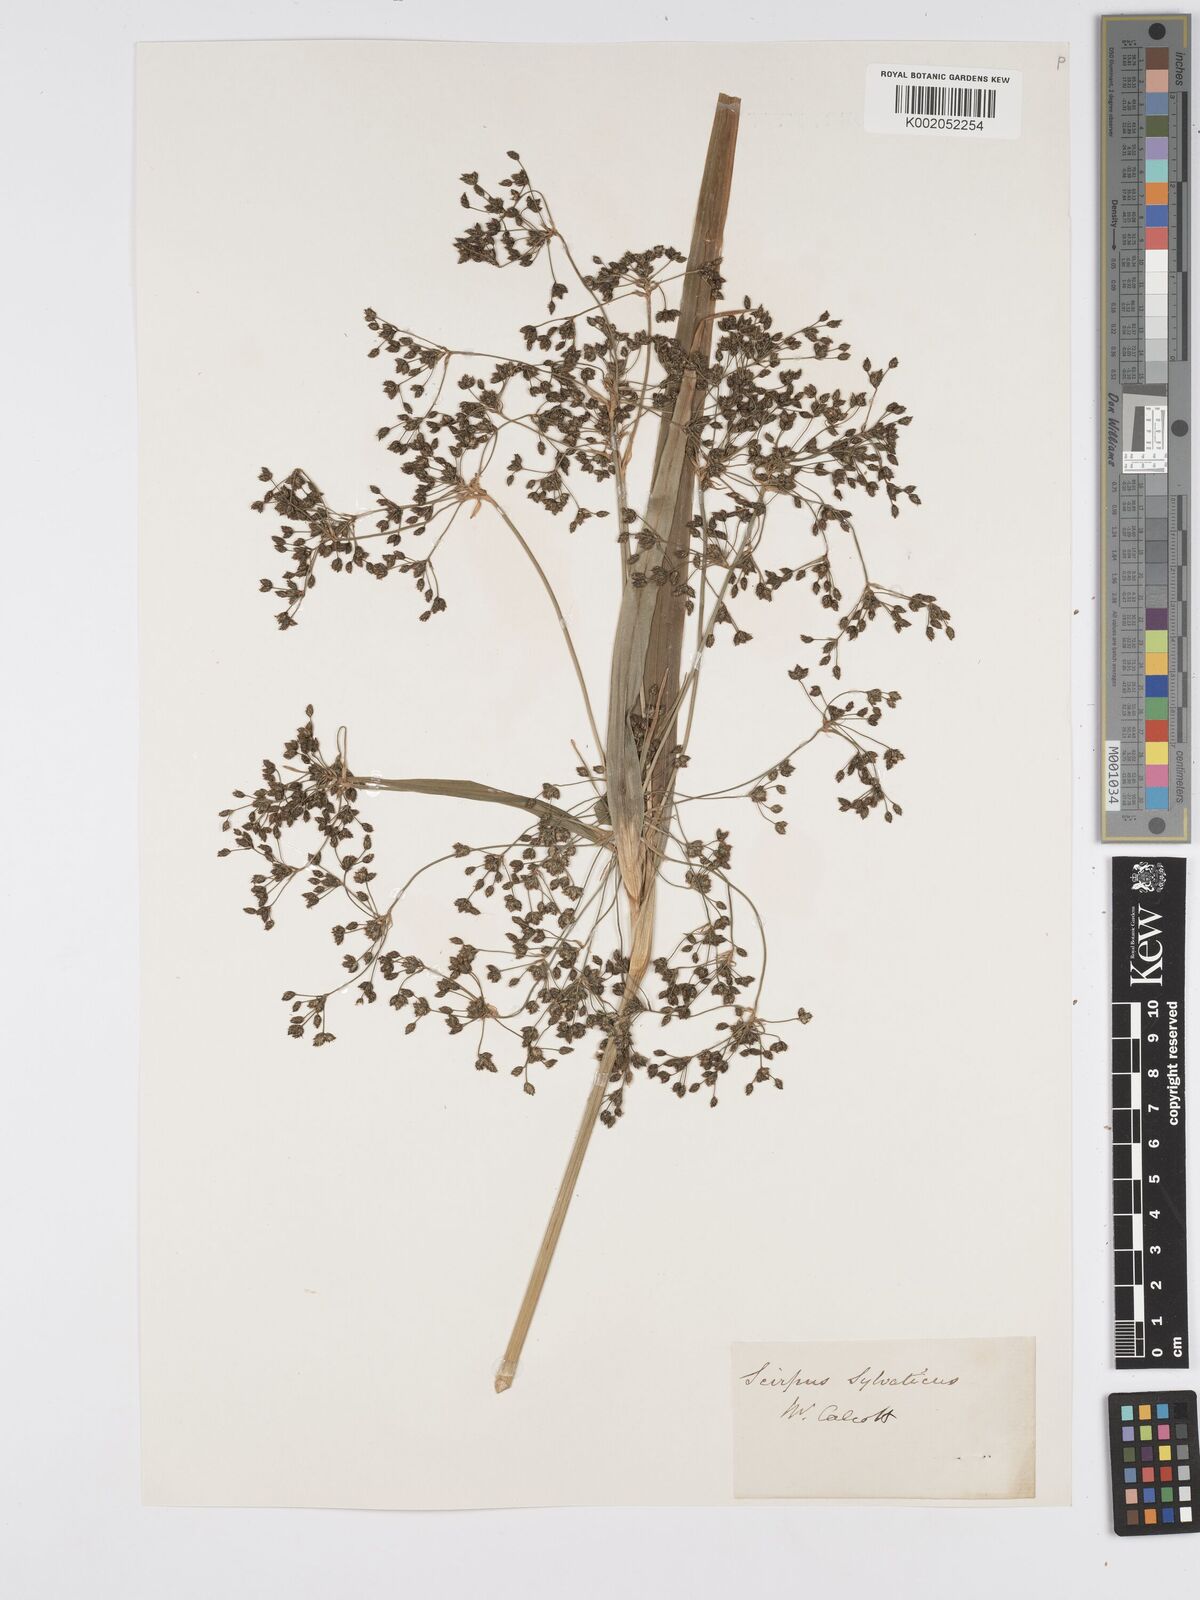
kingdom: Plantae
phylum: Tracheophyta
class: Liliopsida
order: Poales
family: Cyperaceae
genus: Scirpus
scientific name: Scirpus sylvaticus
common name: Wood club-rush
